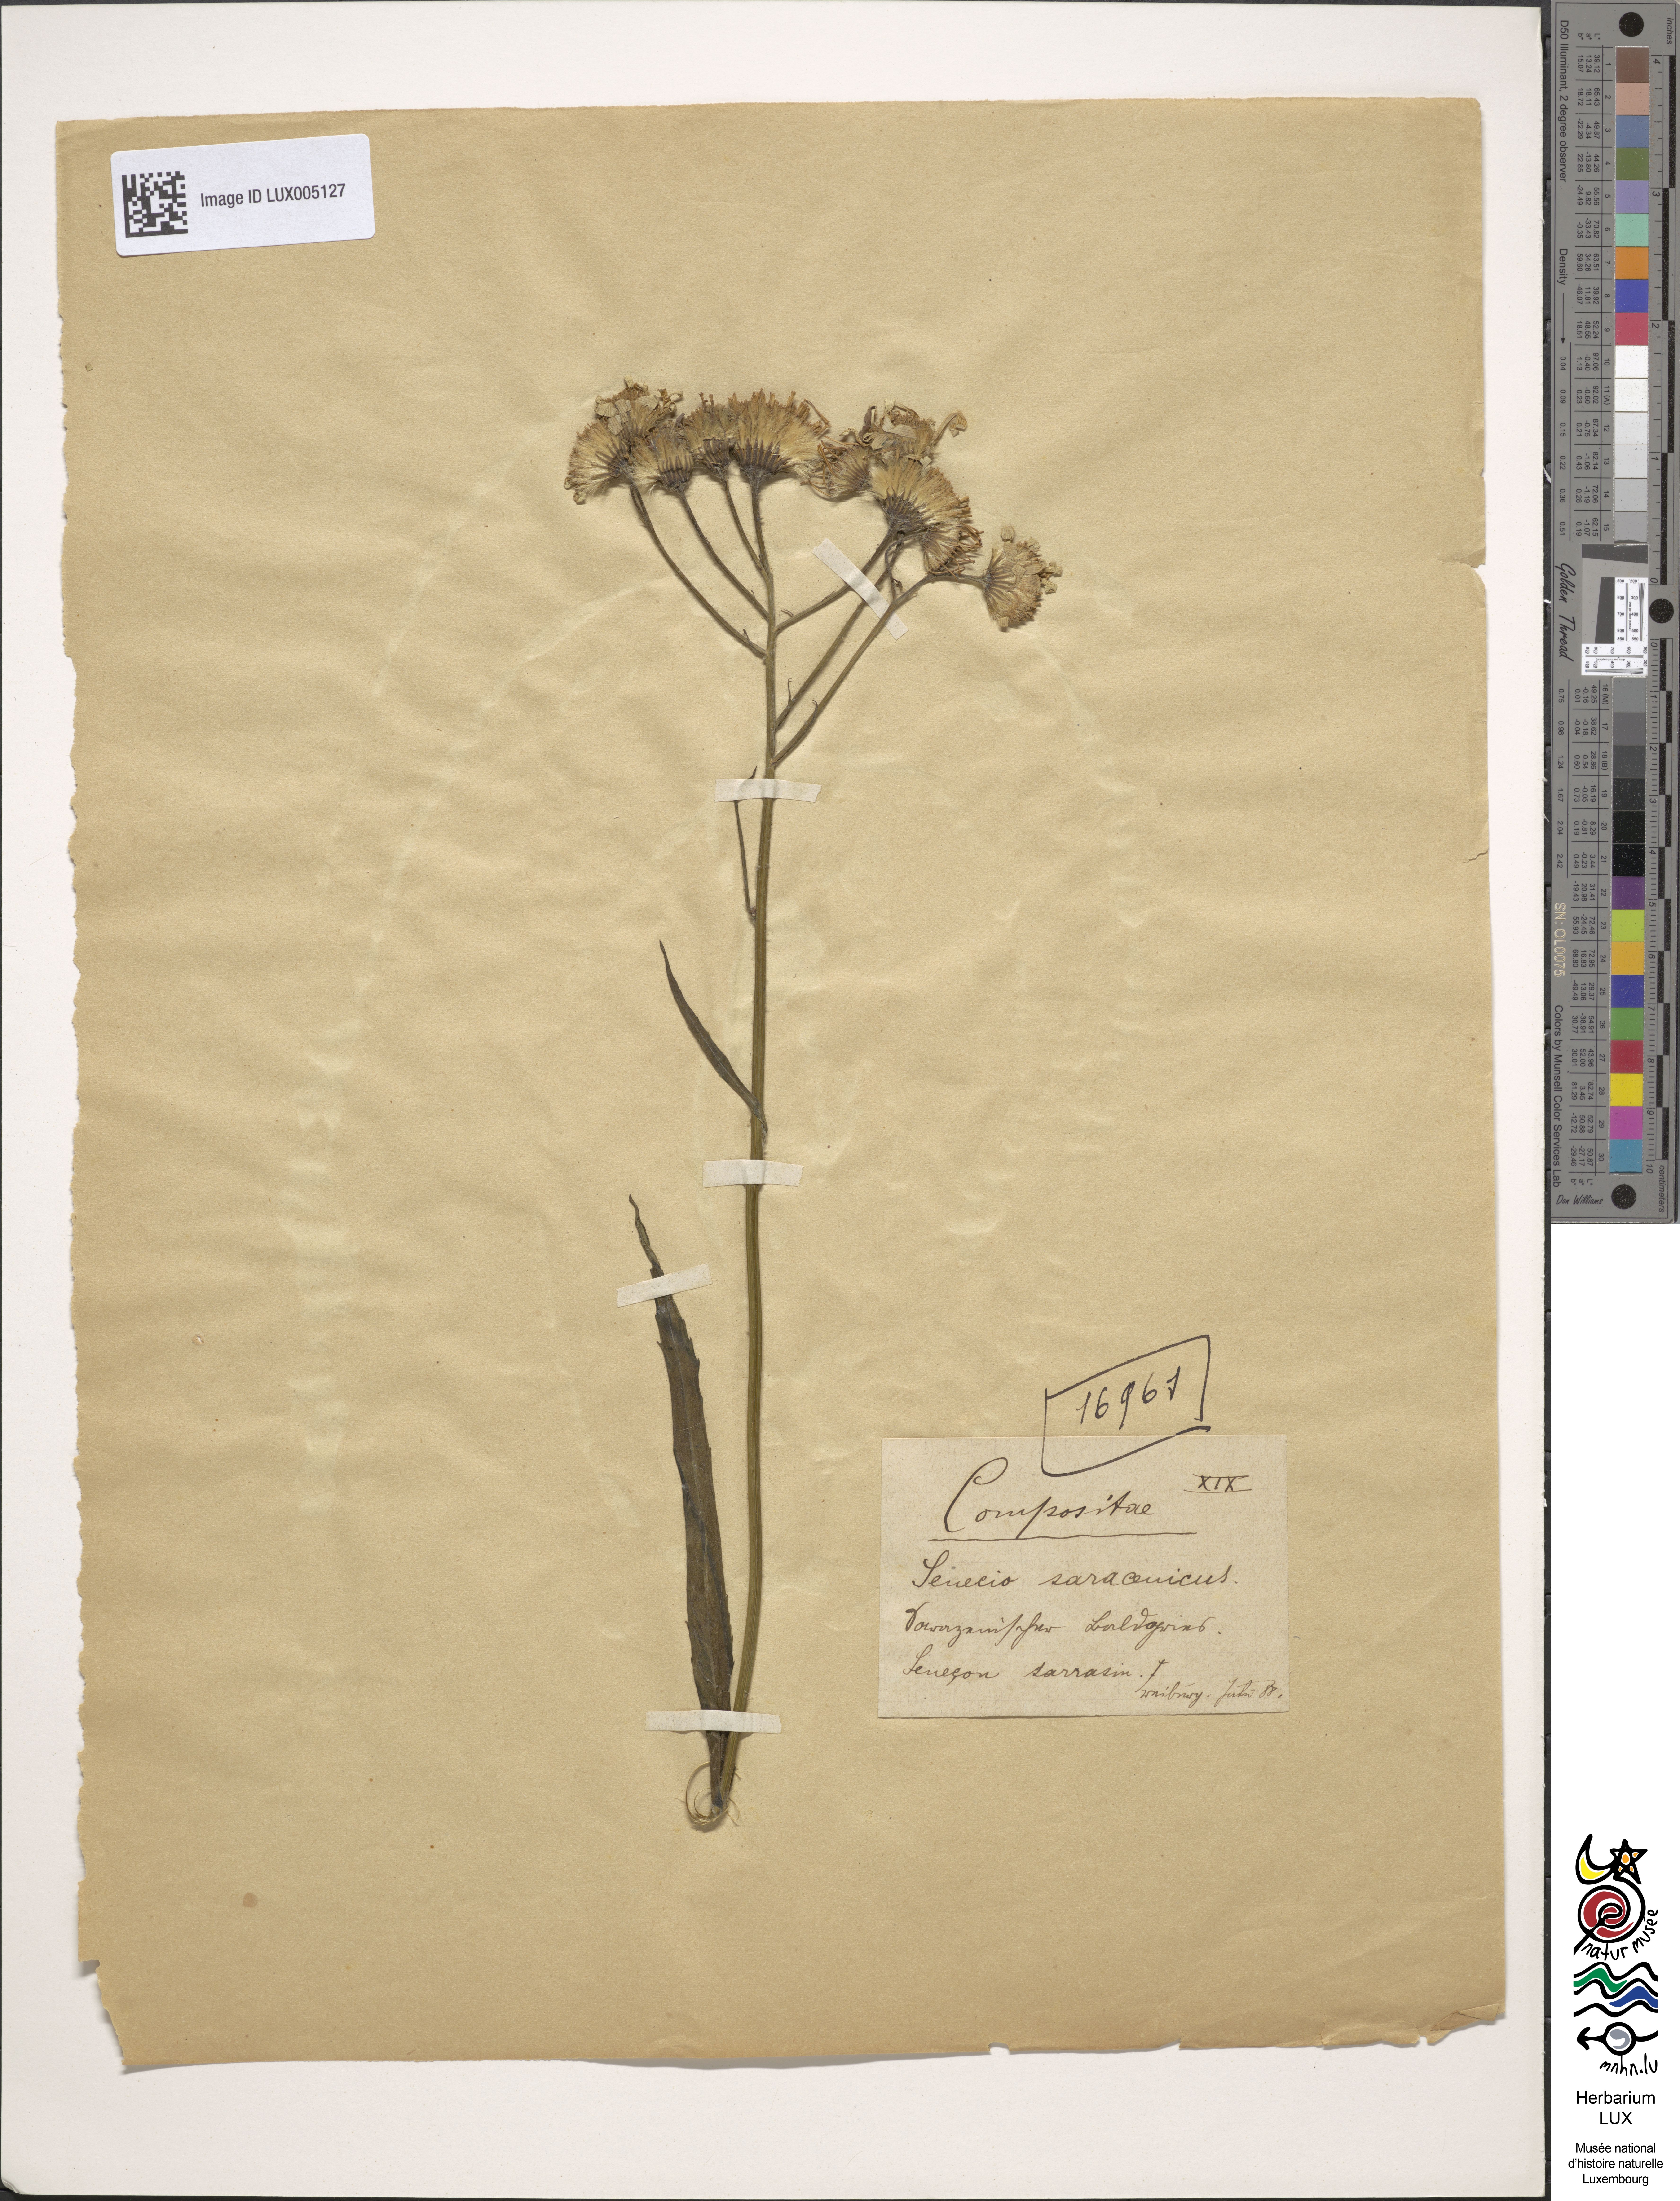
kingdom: Plantae
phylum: Tracheophyta
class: Magnoliopsida
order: Asterales
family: Asteraceae
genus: Senecio
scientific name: Senecio sarracenicus
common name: Broad-leaved ragwort
